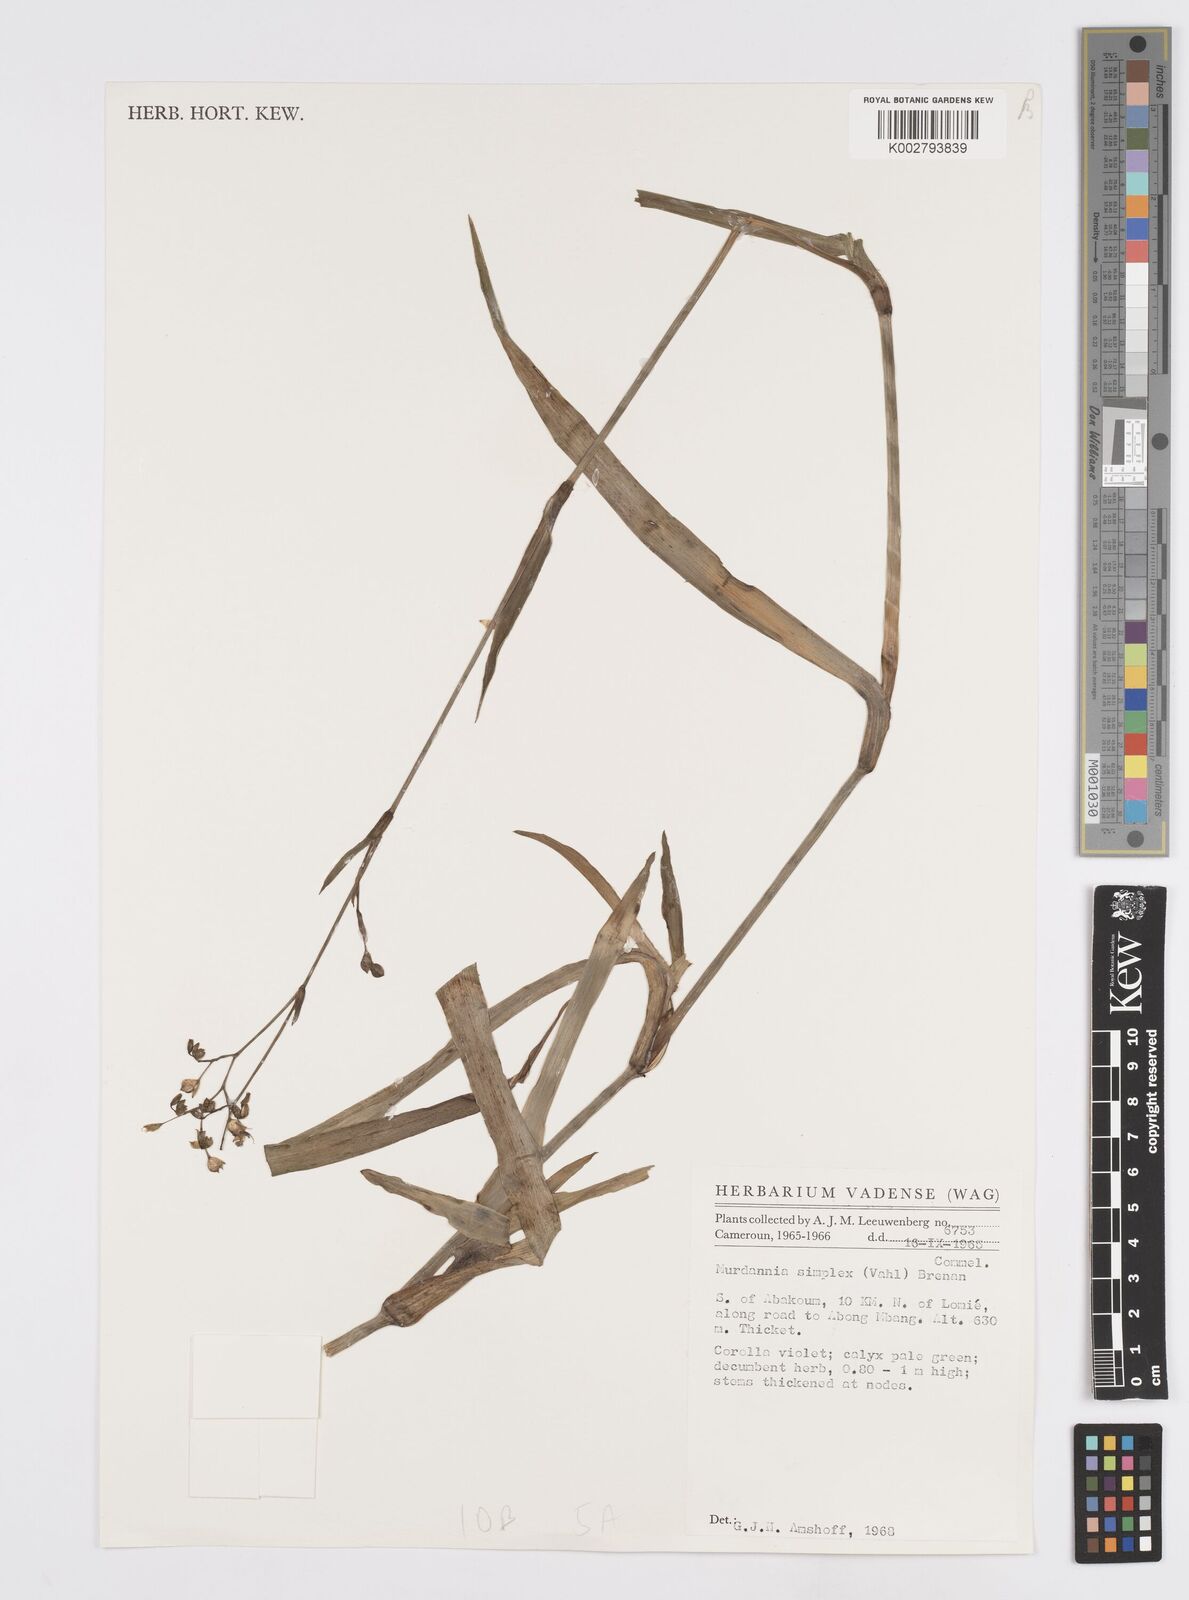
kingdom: Plantae
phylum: Tracheophyta
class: Liliopsida
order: Commelinales
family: Commelinaceae
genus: Murdannia
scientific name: Murdannia simplex
